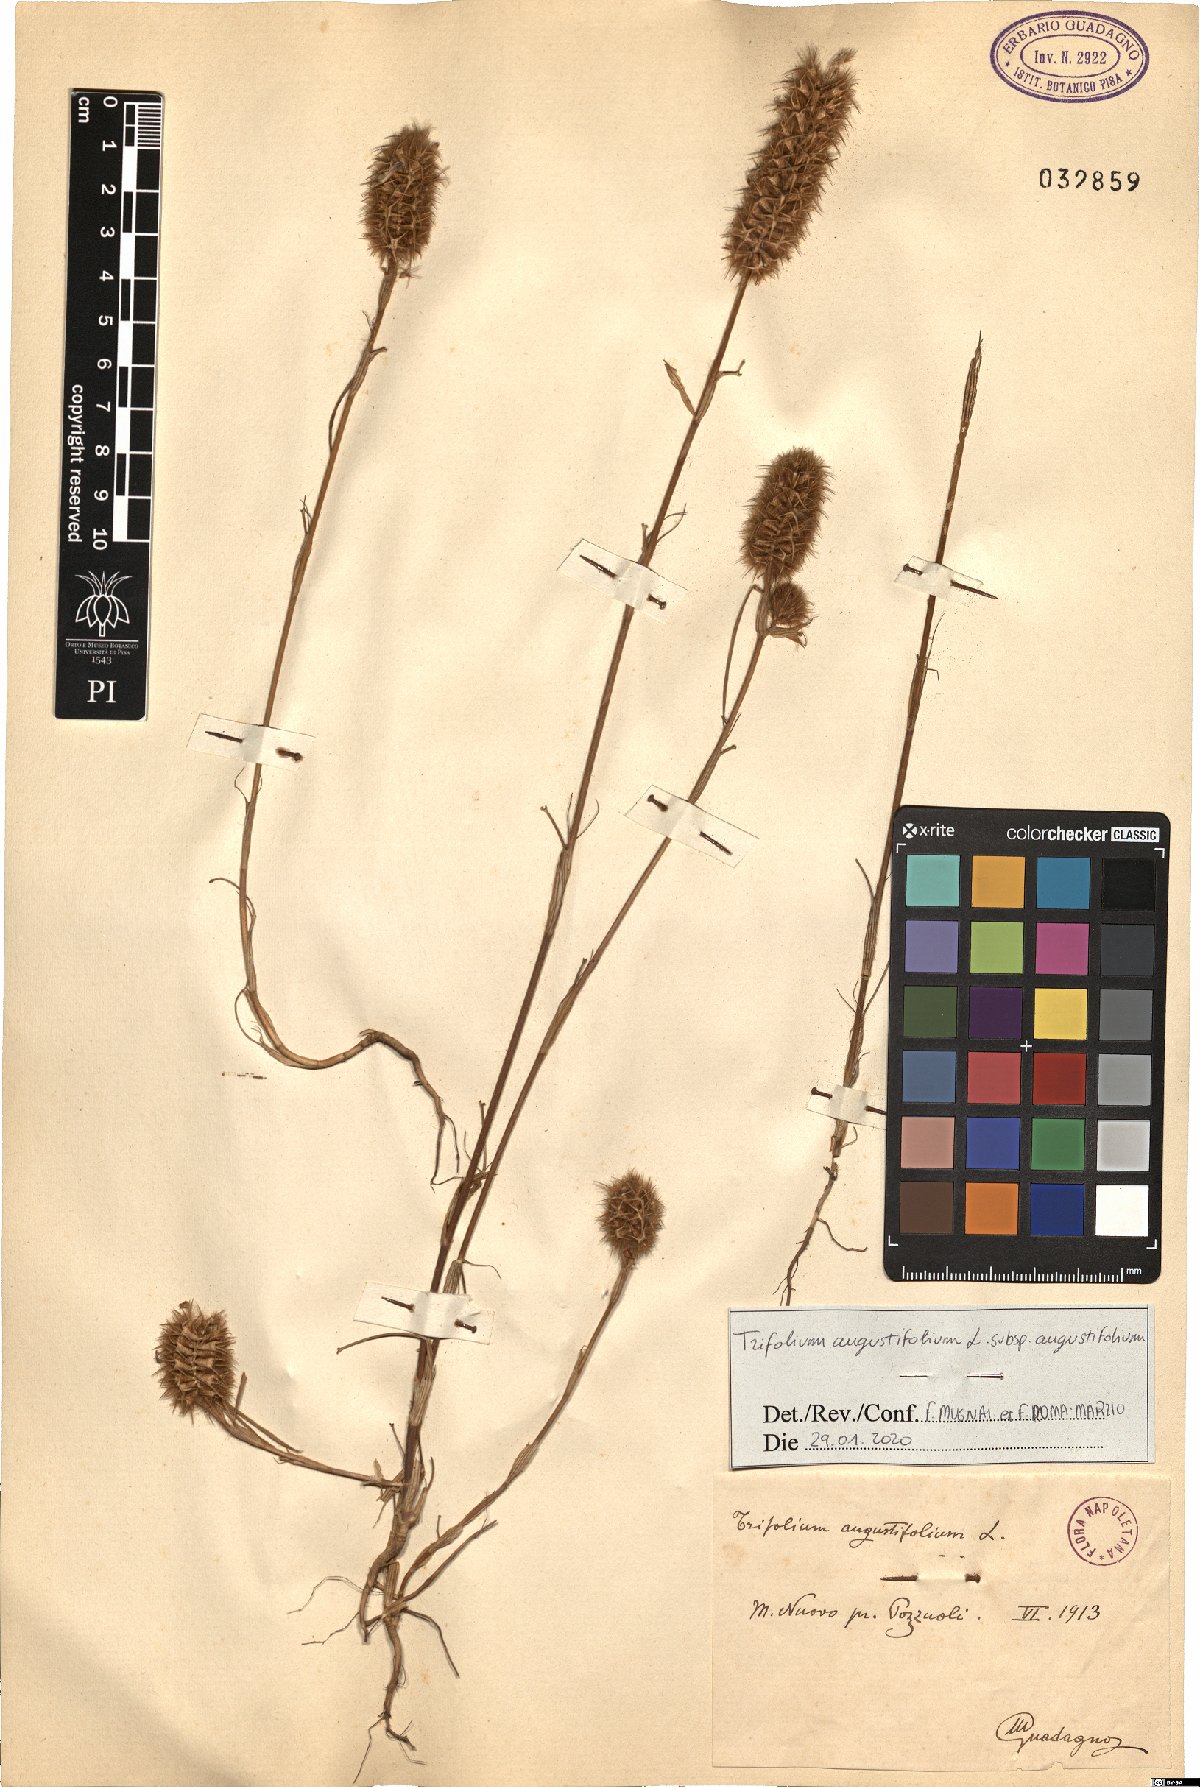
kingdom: Plantae
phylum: Tracheophyta
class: Magnoliopsida
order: Fabales
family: Fabaceae
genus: Trifolium
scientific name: Trifolium angustifolium
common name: Narrow clover
